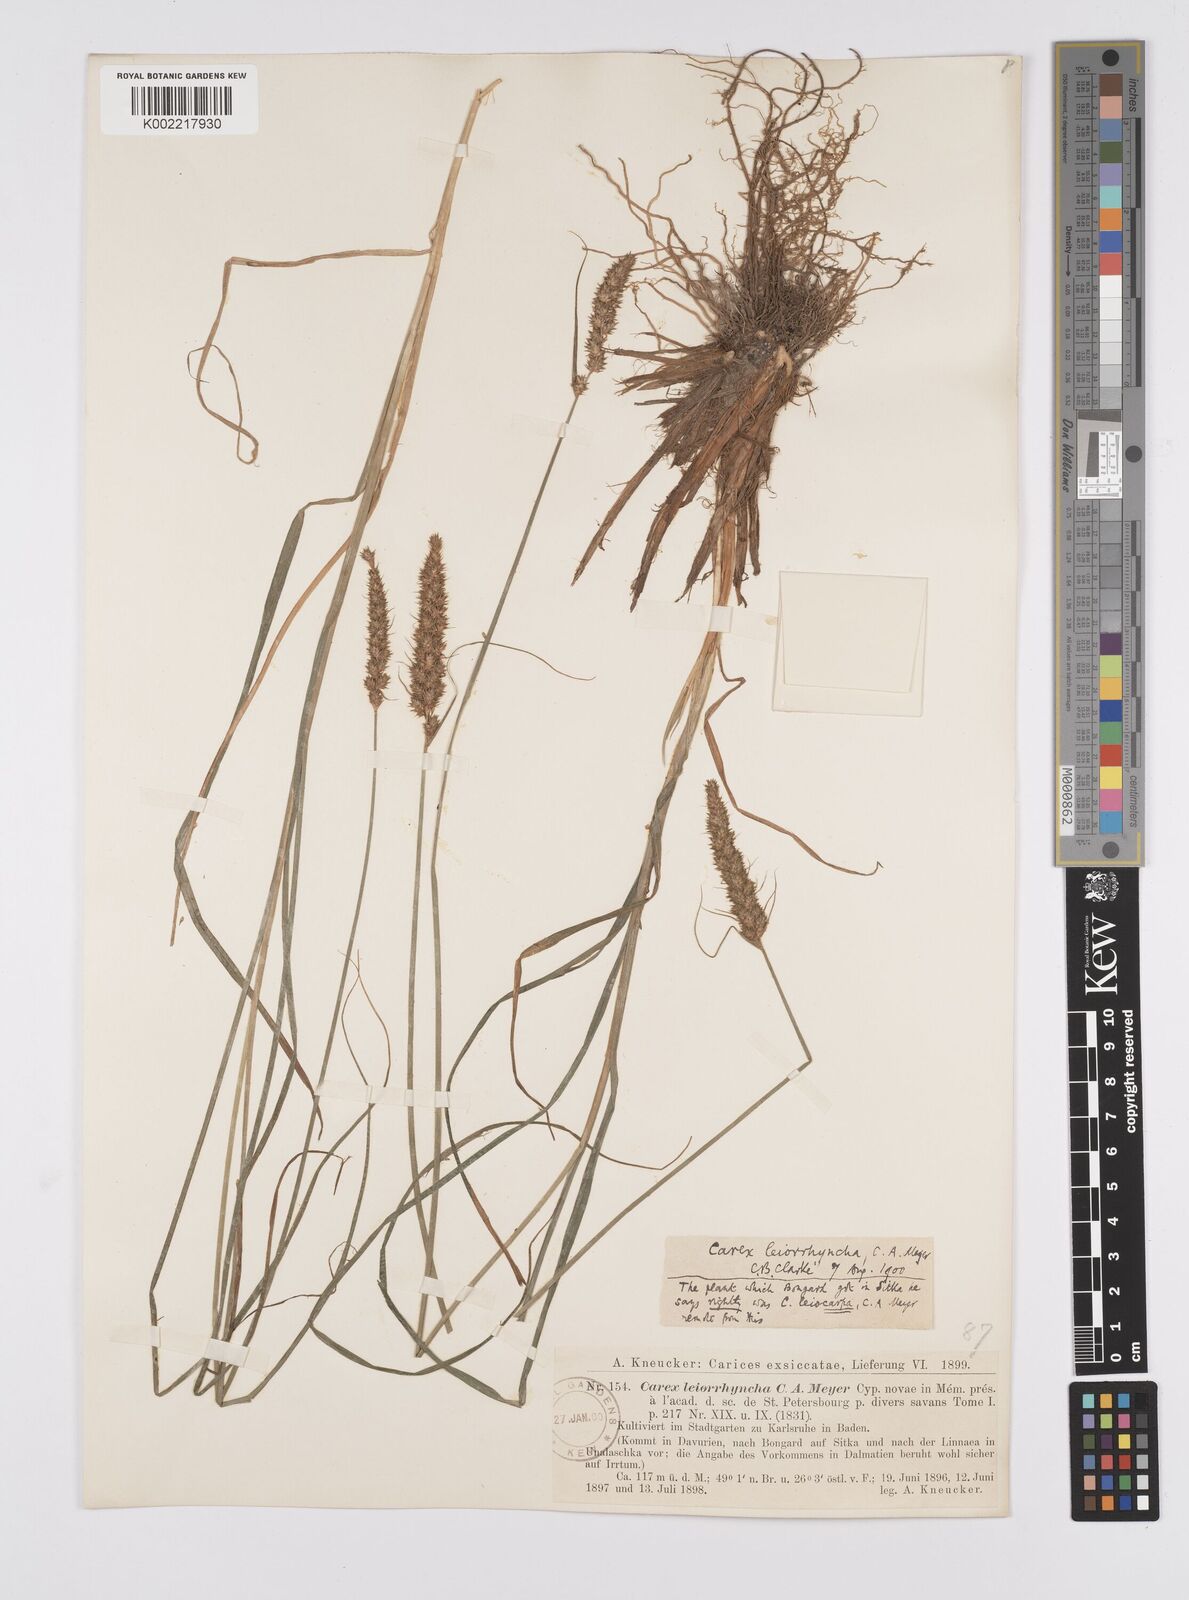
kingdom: Plantae
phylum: Tracheophyta
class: Liliopsida
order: Poales
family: Cyperaceae
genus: Carex
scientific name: Carex leiorhyncha
